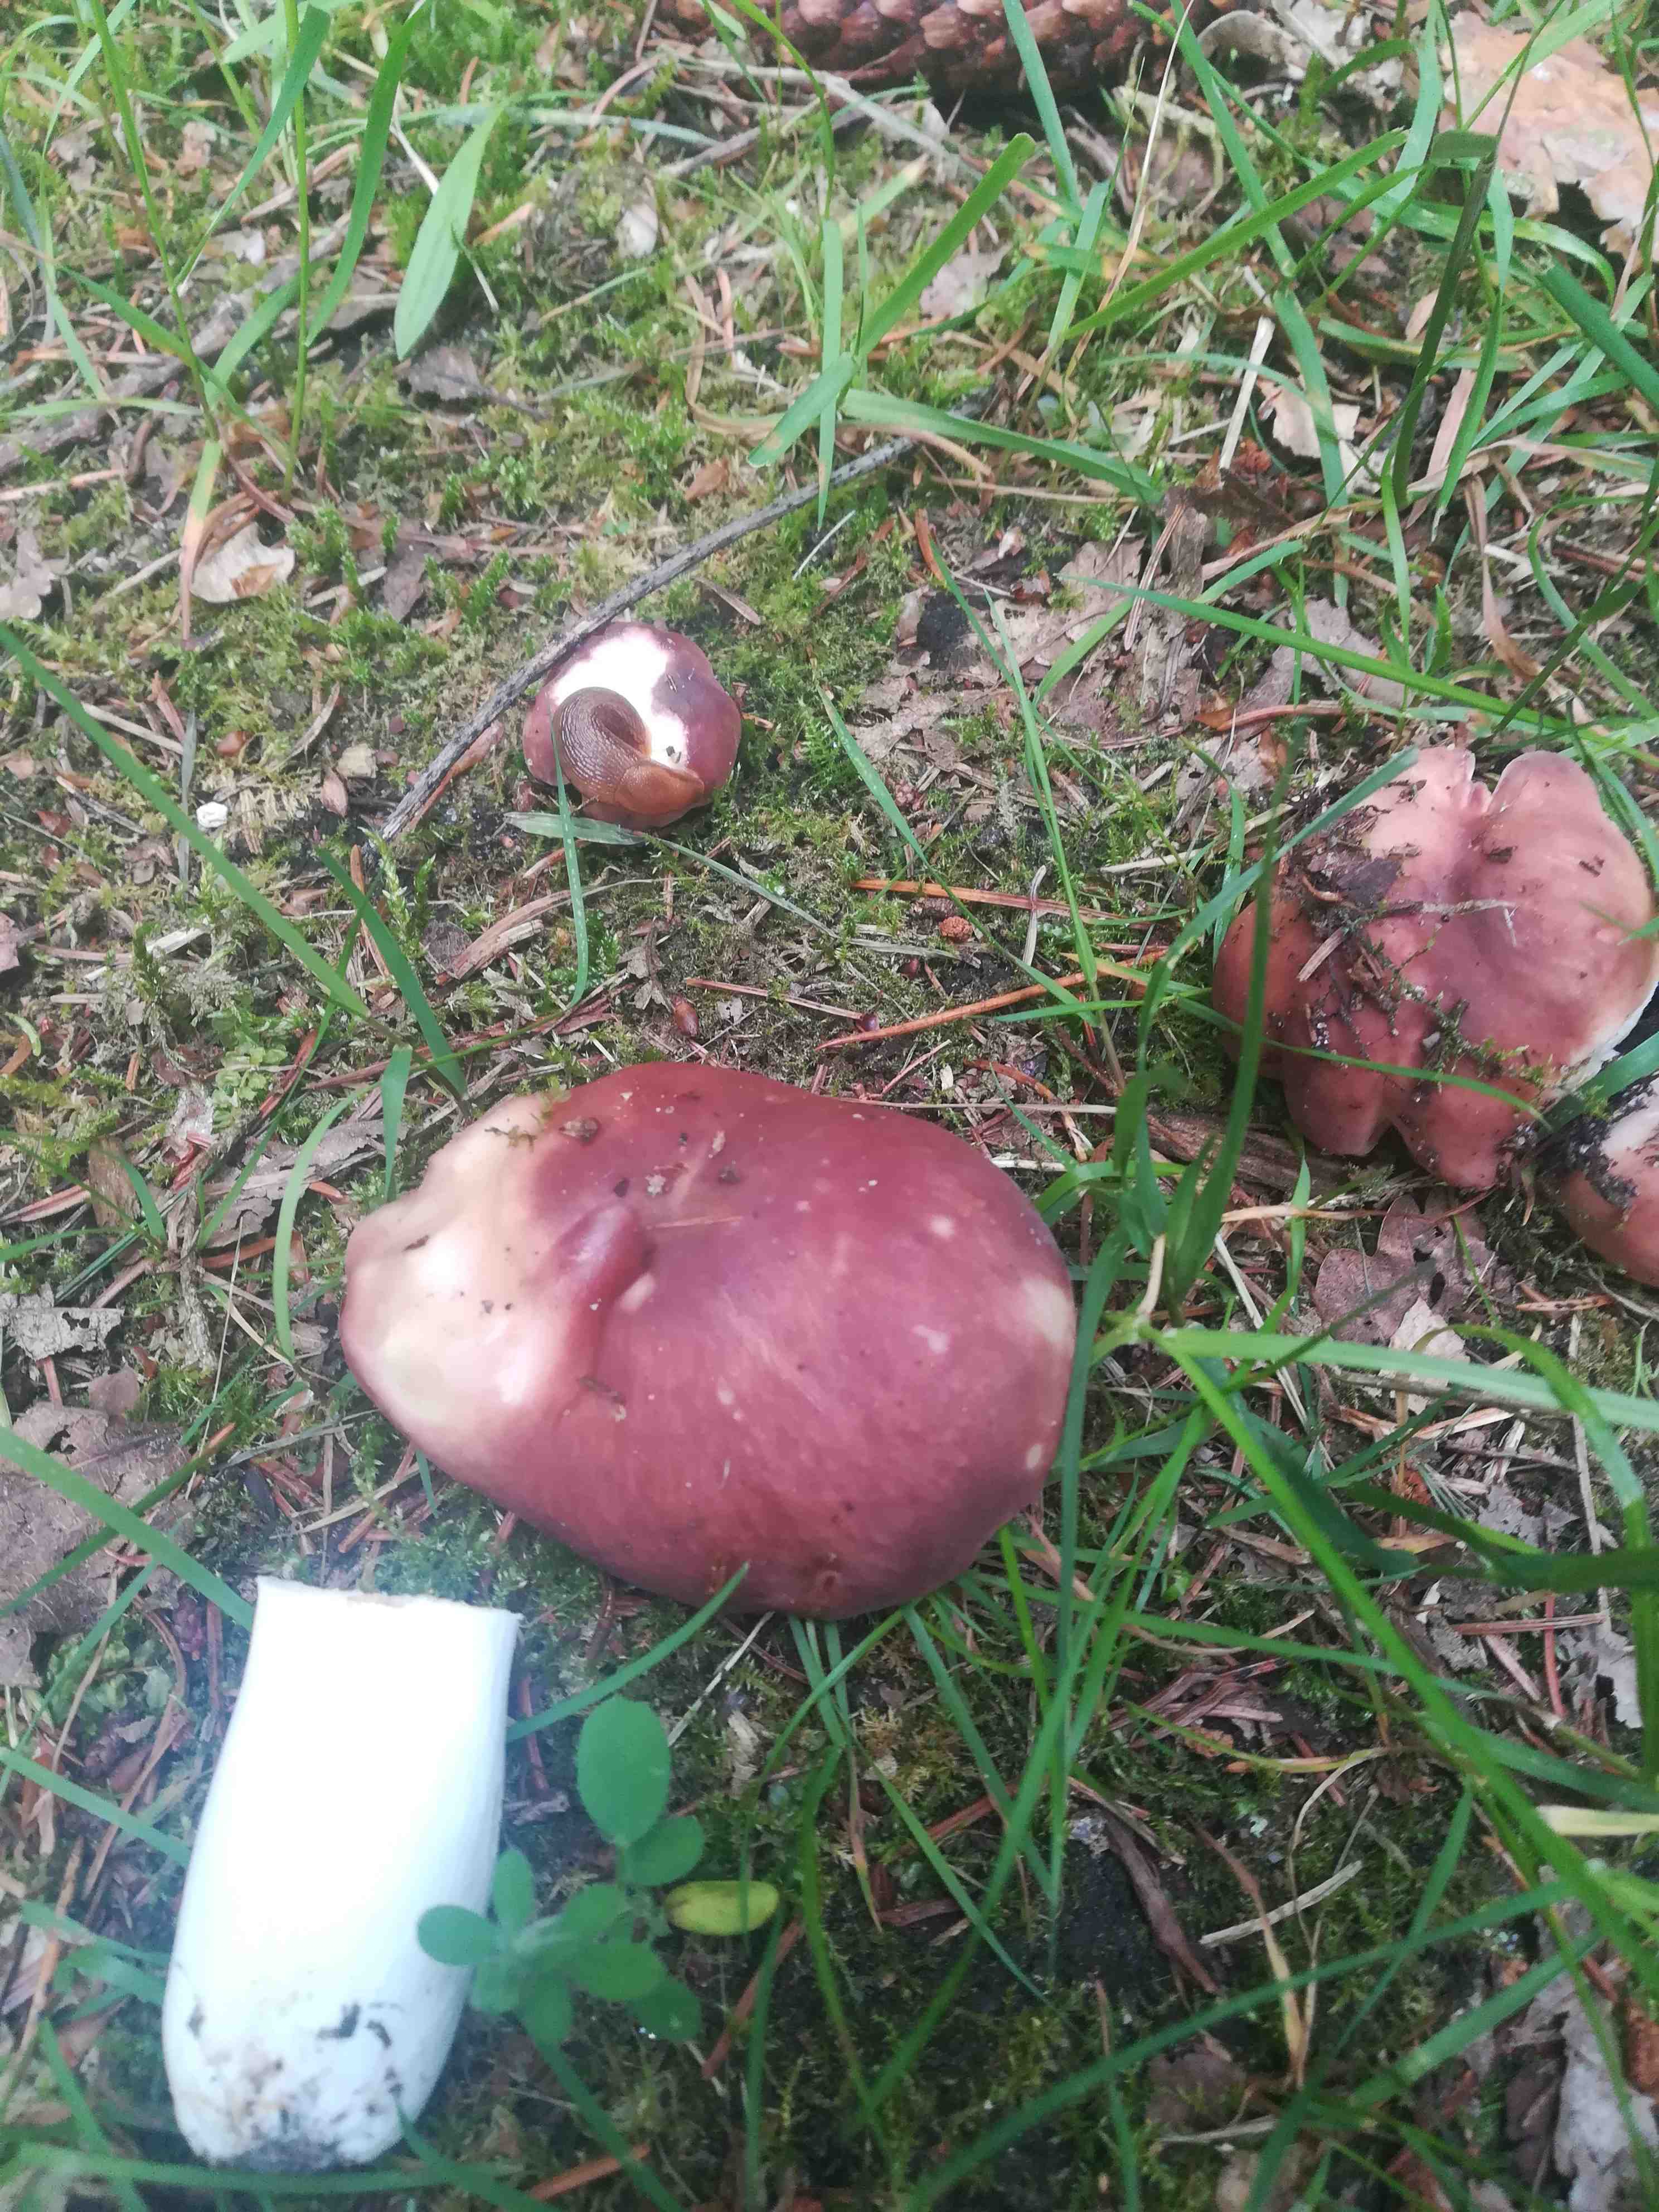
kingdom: Fungi
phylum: Basidiomycota
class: Agaricomycetes
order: Russulales
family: Russulaceae
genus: Russula
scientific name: Russula vesca
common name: spiselig skørhat
